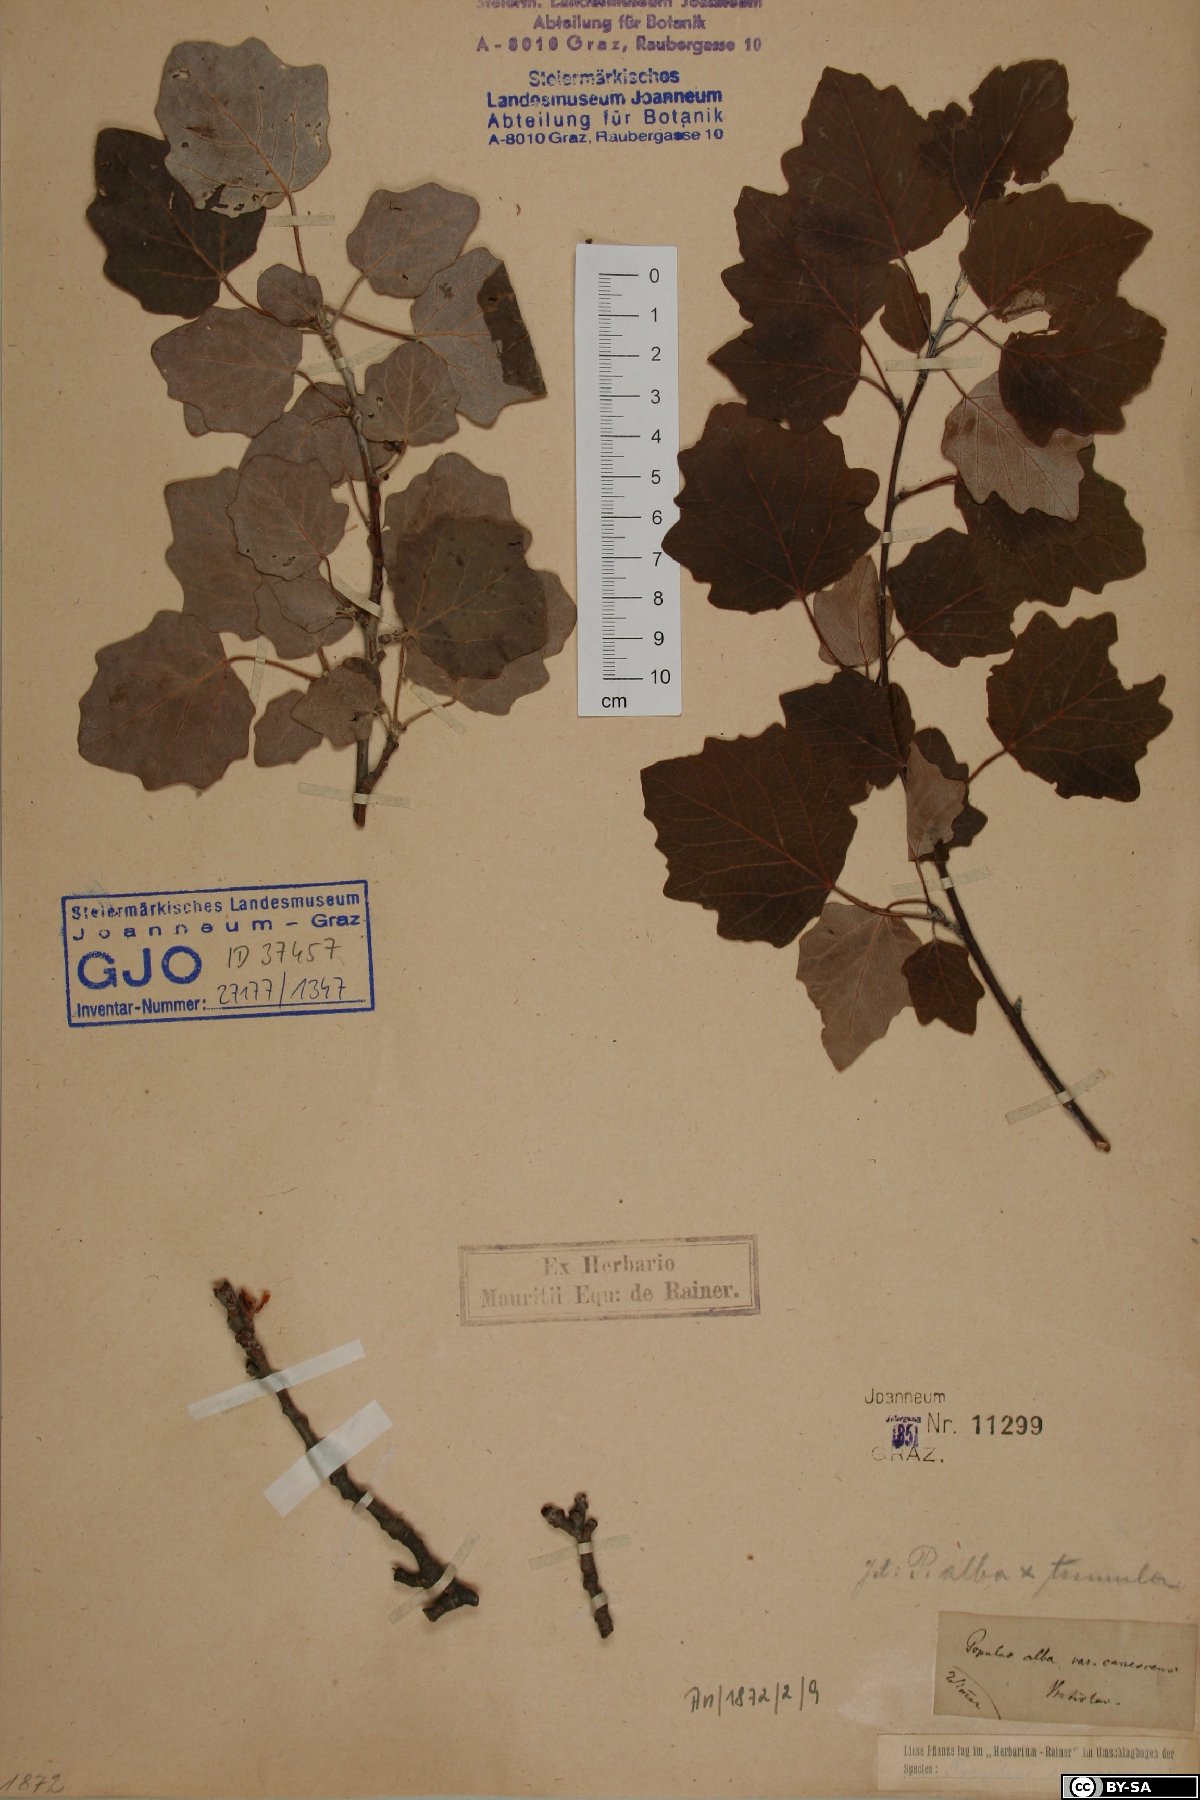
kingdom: Plantae
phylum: Tracheophyta
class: Magnoliopsida
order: Malpighiales
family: Salicaceae
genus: Populus
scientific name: Populus canescens
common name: Gray poplar
